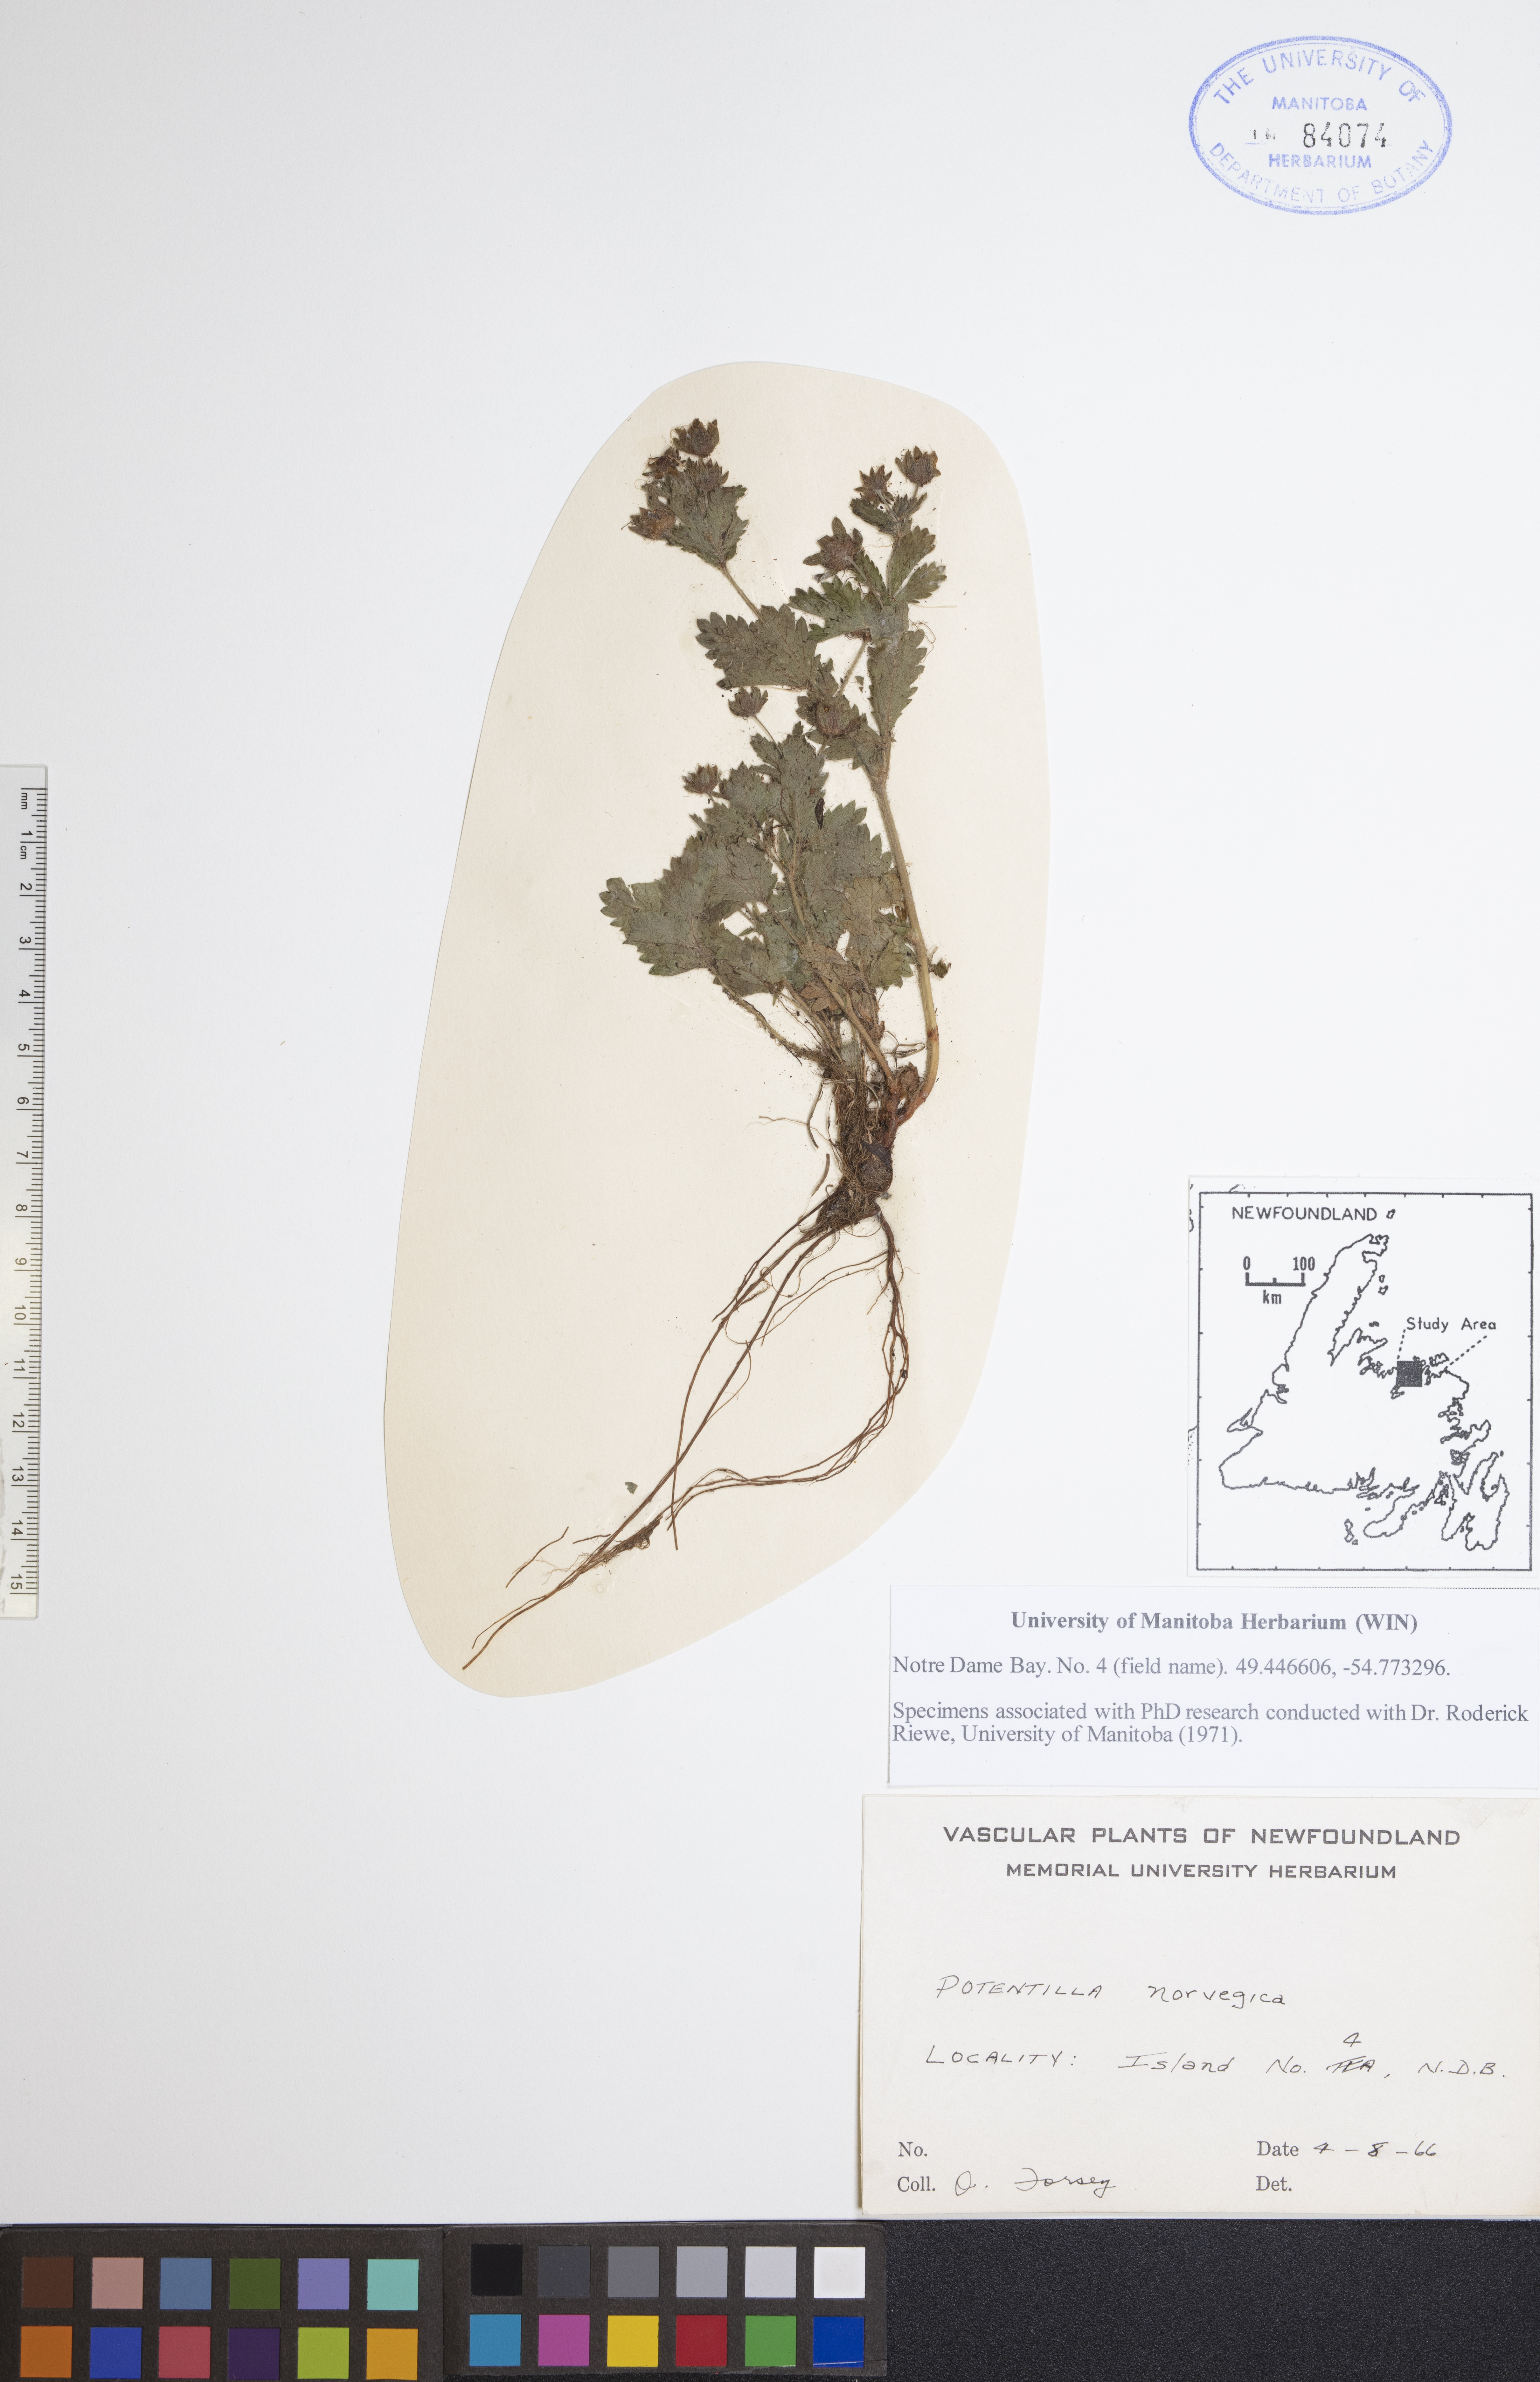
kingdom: Plantae
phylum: Tracheophyta
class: Magnoliopsida
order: Rosales
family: Rosaceae
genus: Potentilla
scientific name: Potentilla norvegica
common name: Ternate-leaved cinquefoil
